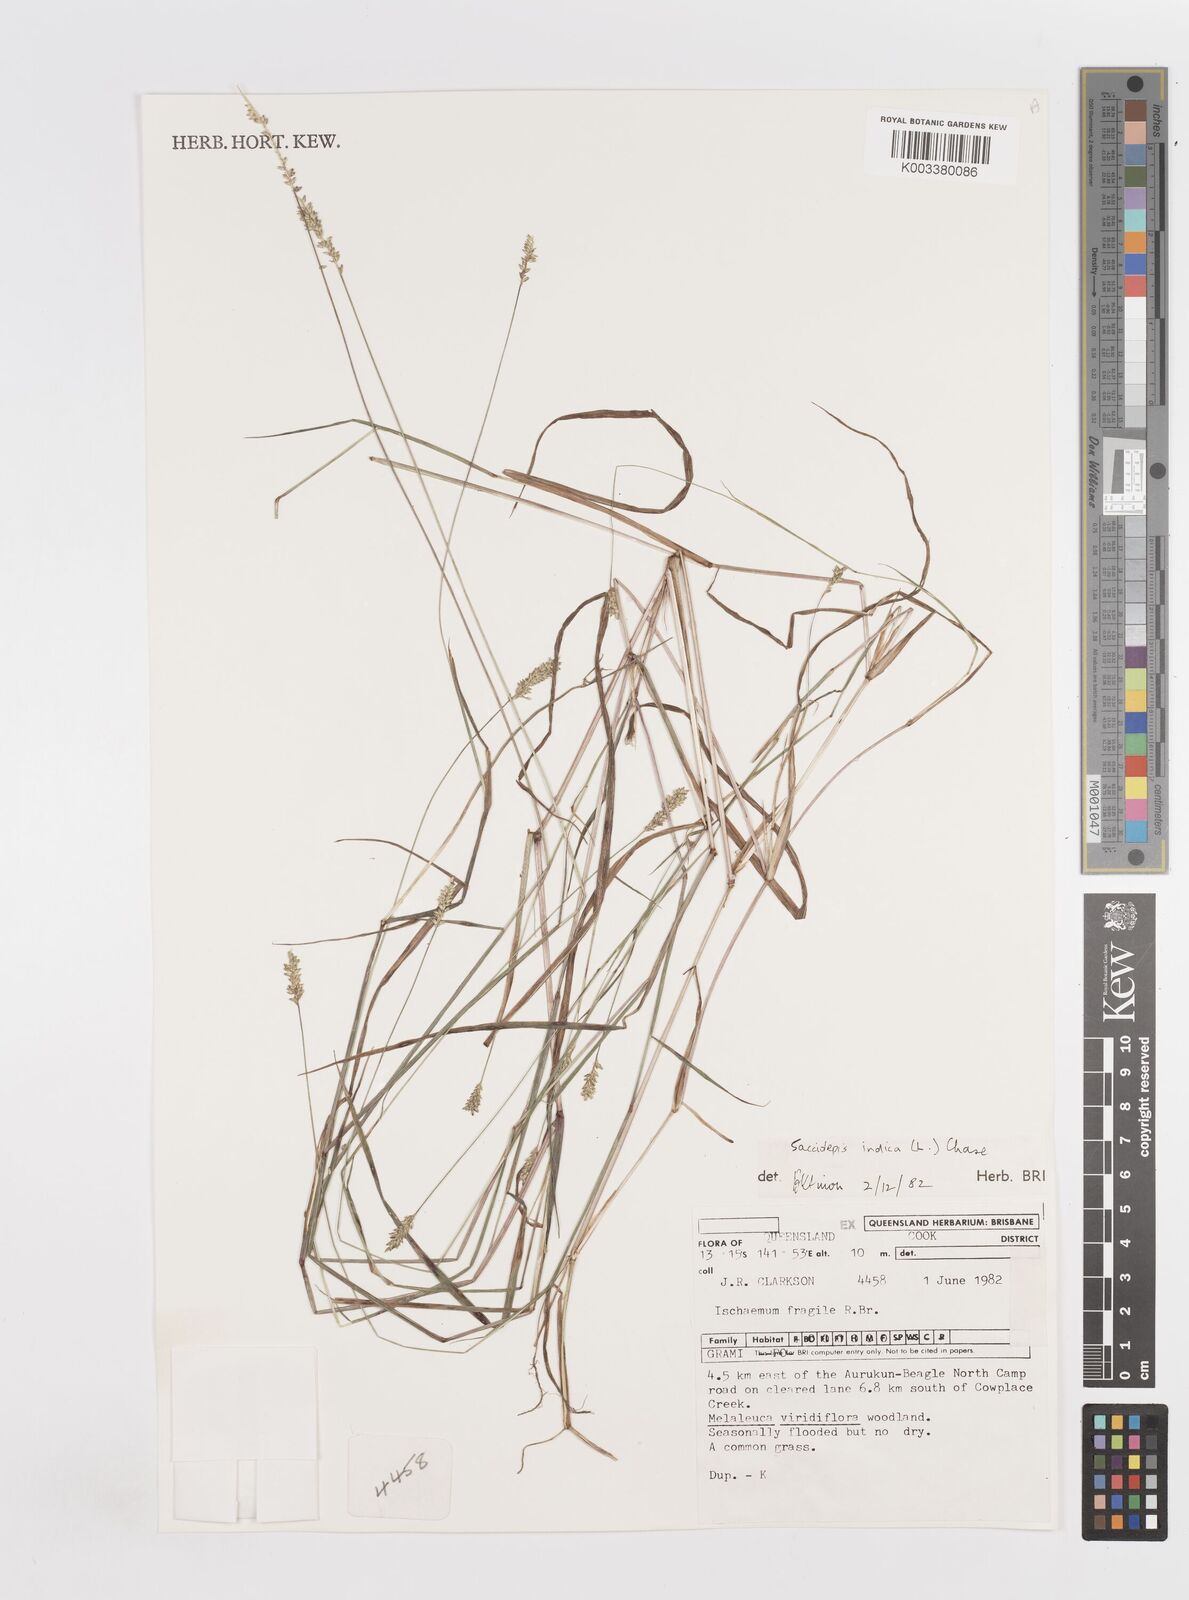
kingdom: Plantae
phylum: Tracheophyta
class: Liliopsida
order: Poales
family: Poaceae
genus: Sacciolepis
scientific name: Sacciolepis indica
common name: Glenwoodgrass
